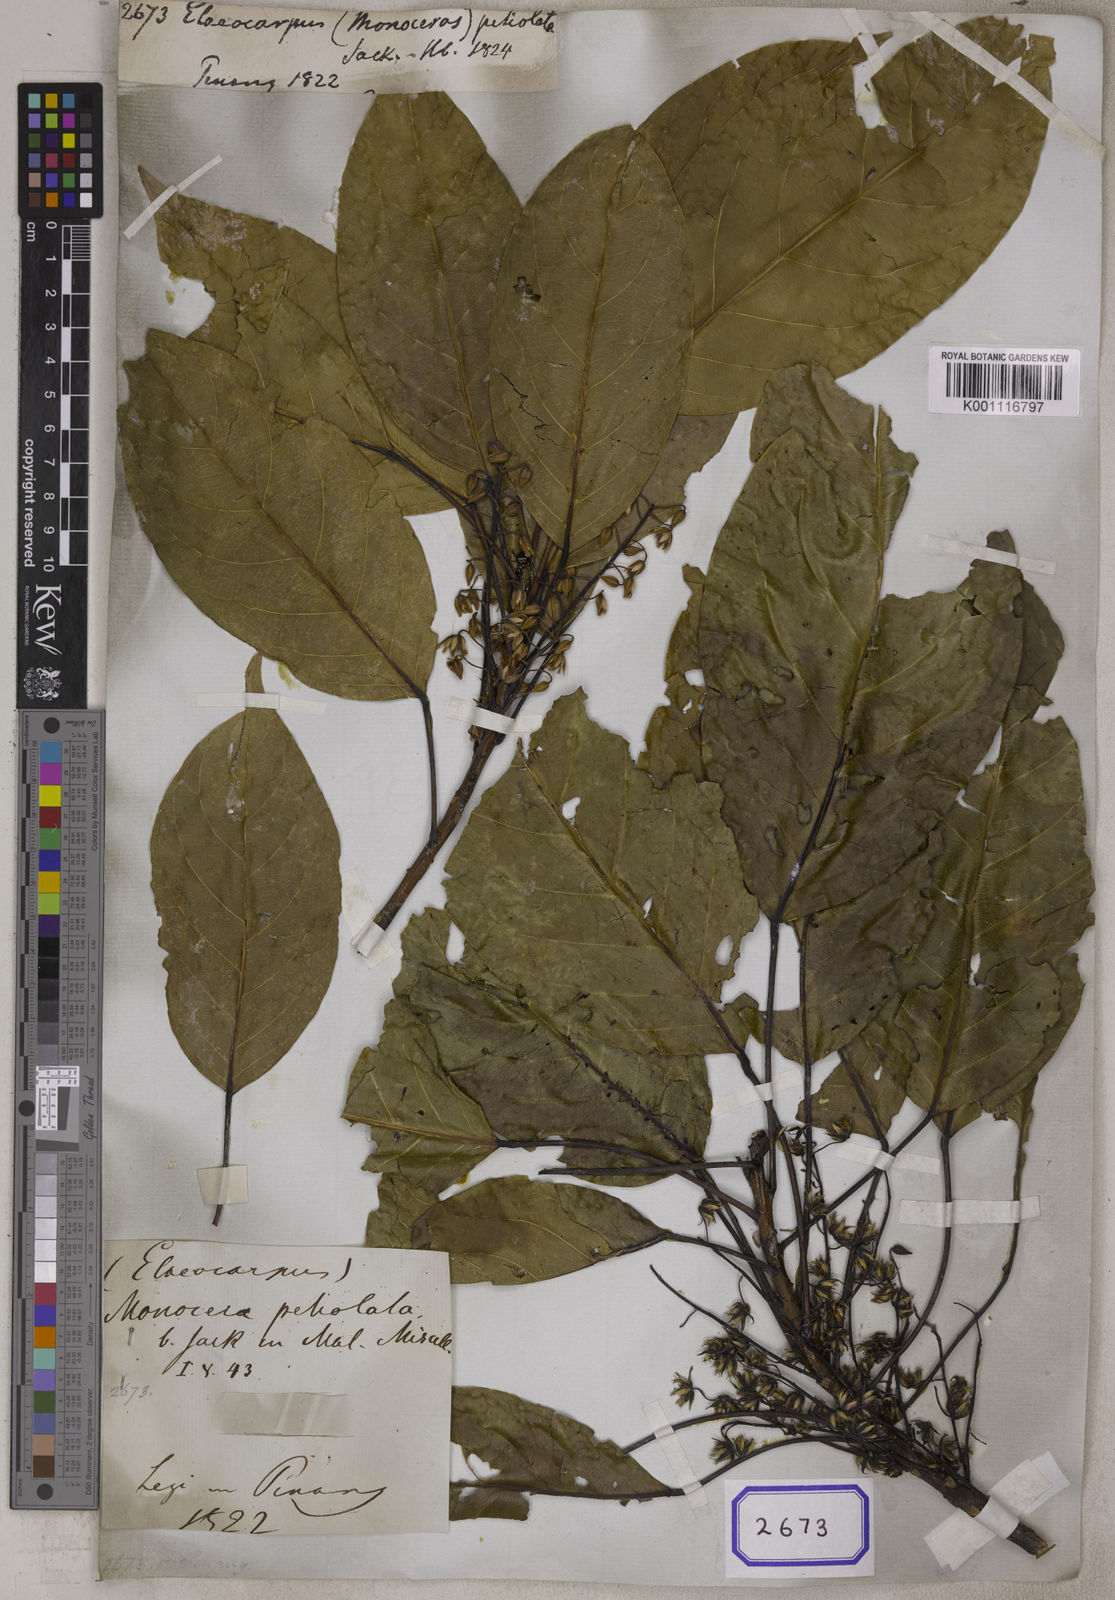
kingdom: Plantae
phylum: Tracheophyta
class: Magnoliopsida
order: Oxalidales
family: Elaeocarpaceae
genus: Elaeocarpus
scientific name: Elaeocarpus petiolatus
